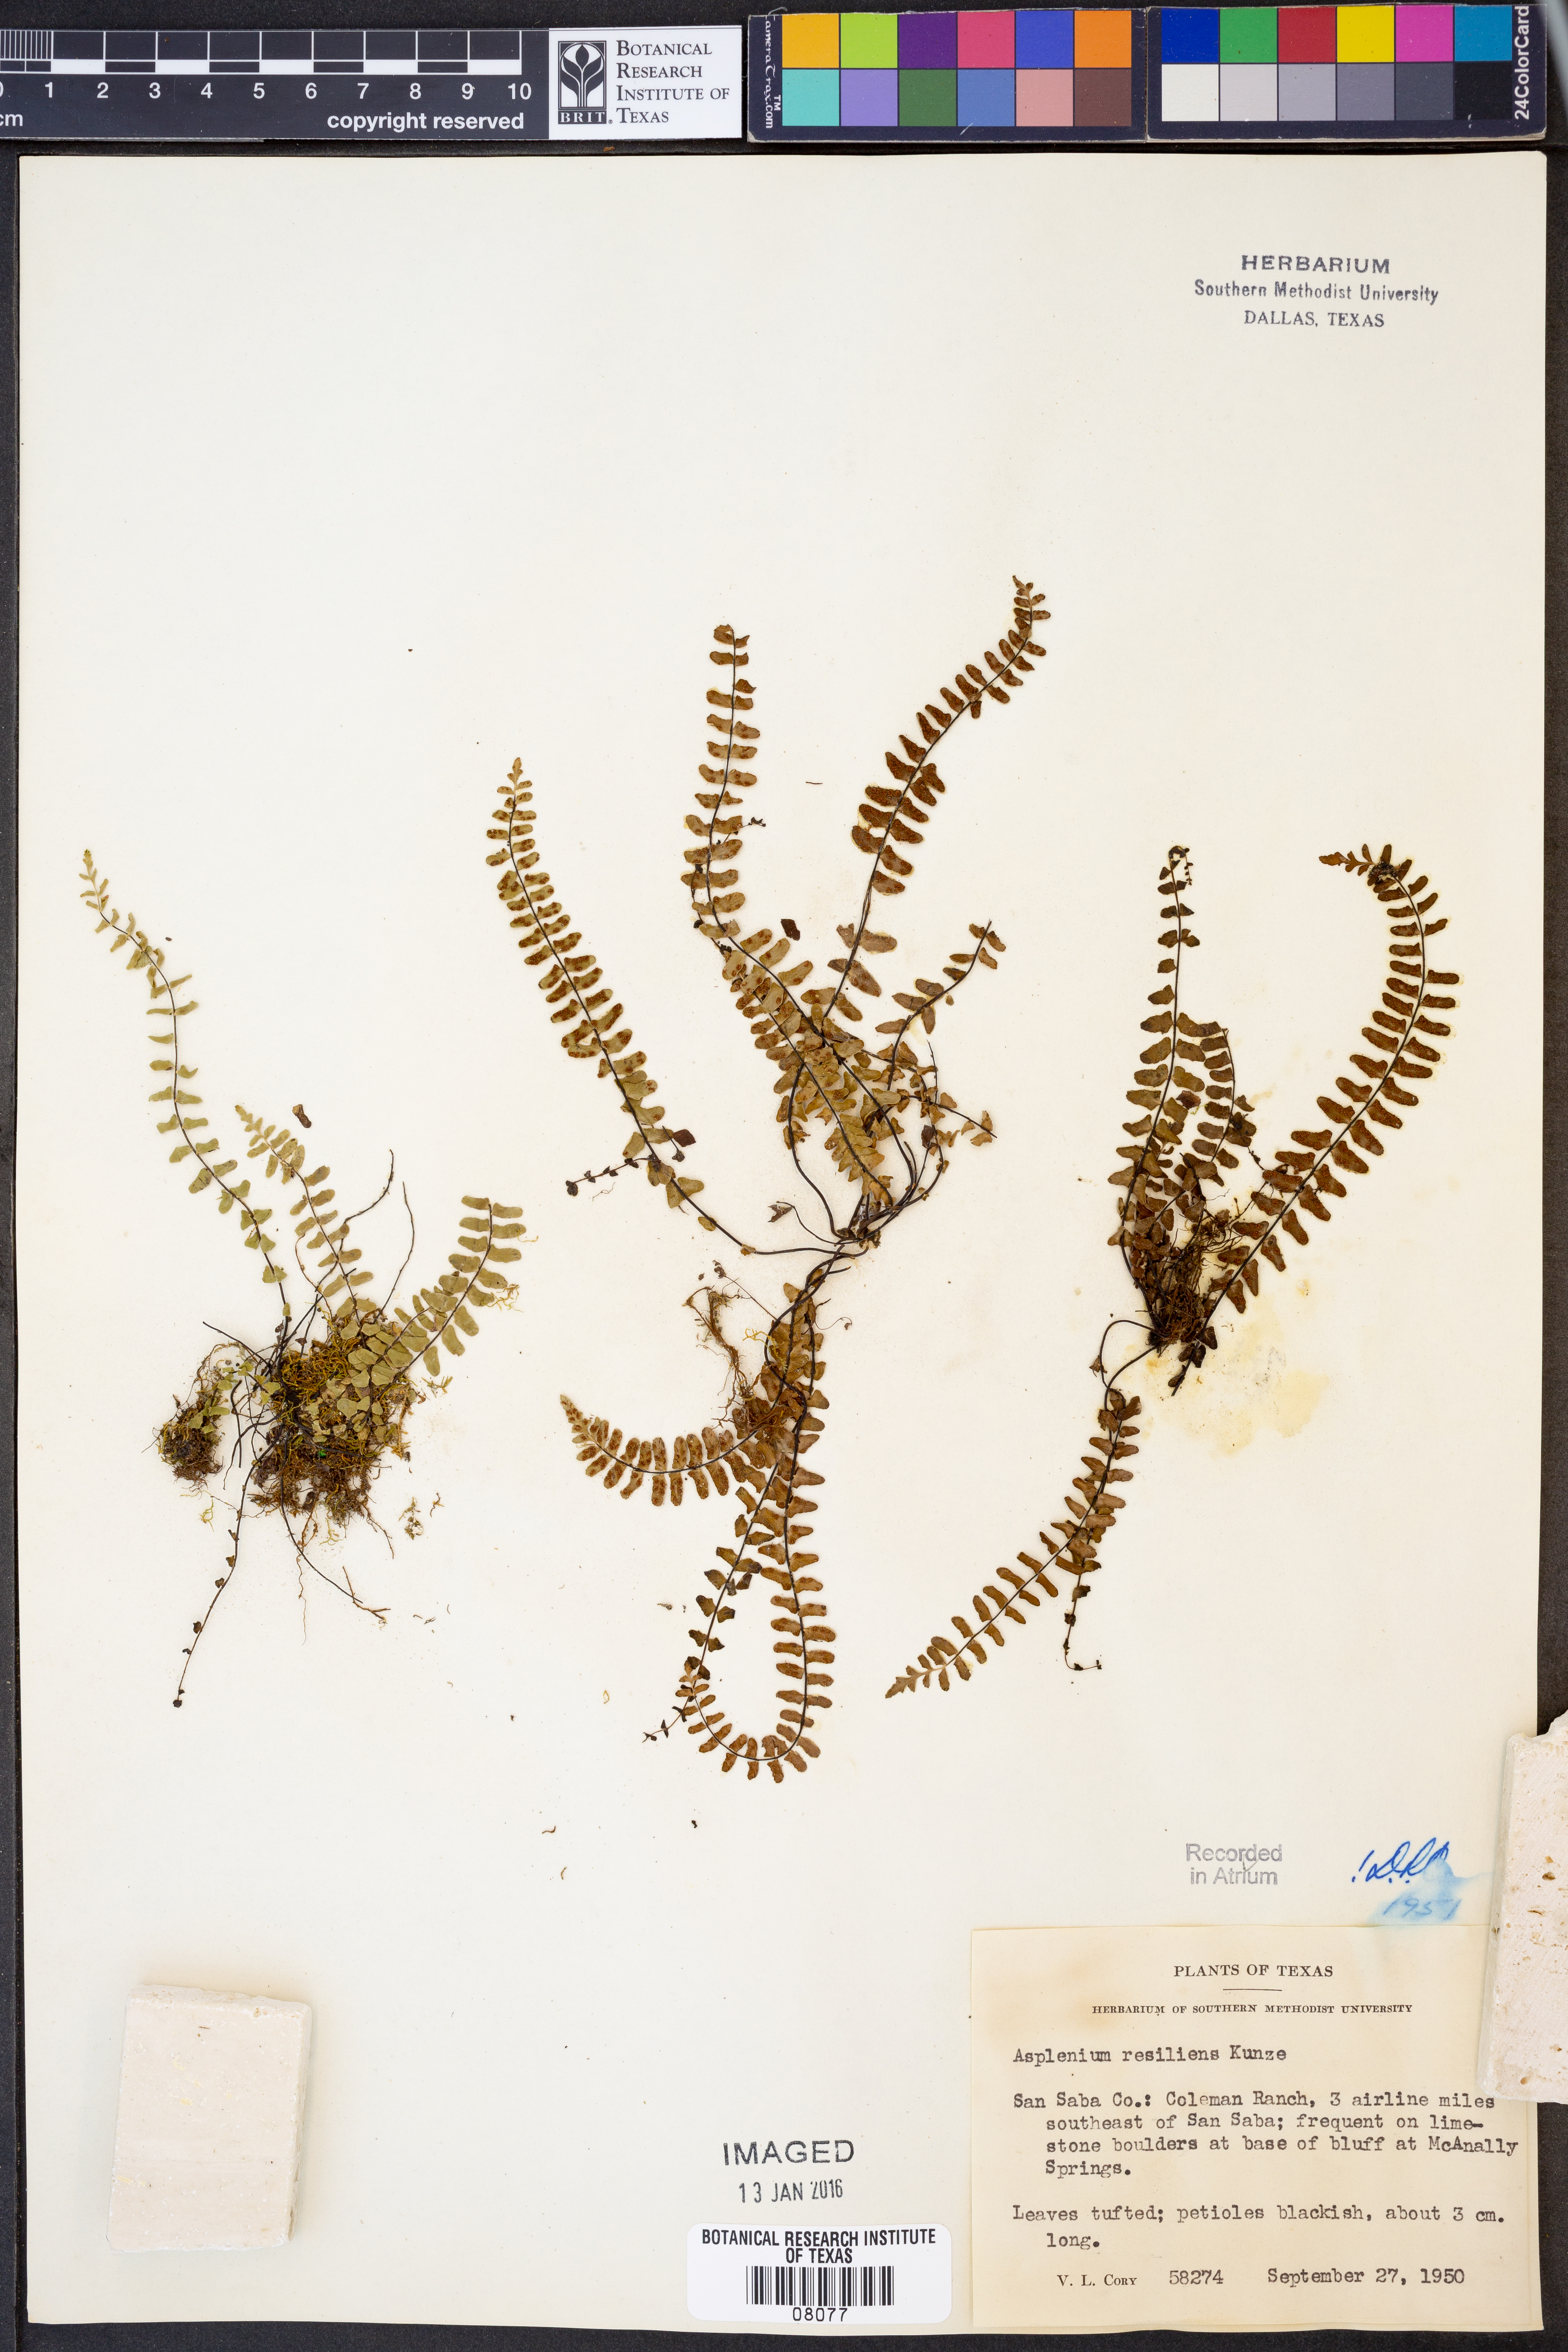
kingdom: Plantae
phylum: Tracheophyta
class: Polypodiopsida
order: Polypodiales
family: Aspleniaceae
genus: Asplenium
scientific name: Asplenium resiliens
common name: Blackstem spleenwort
